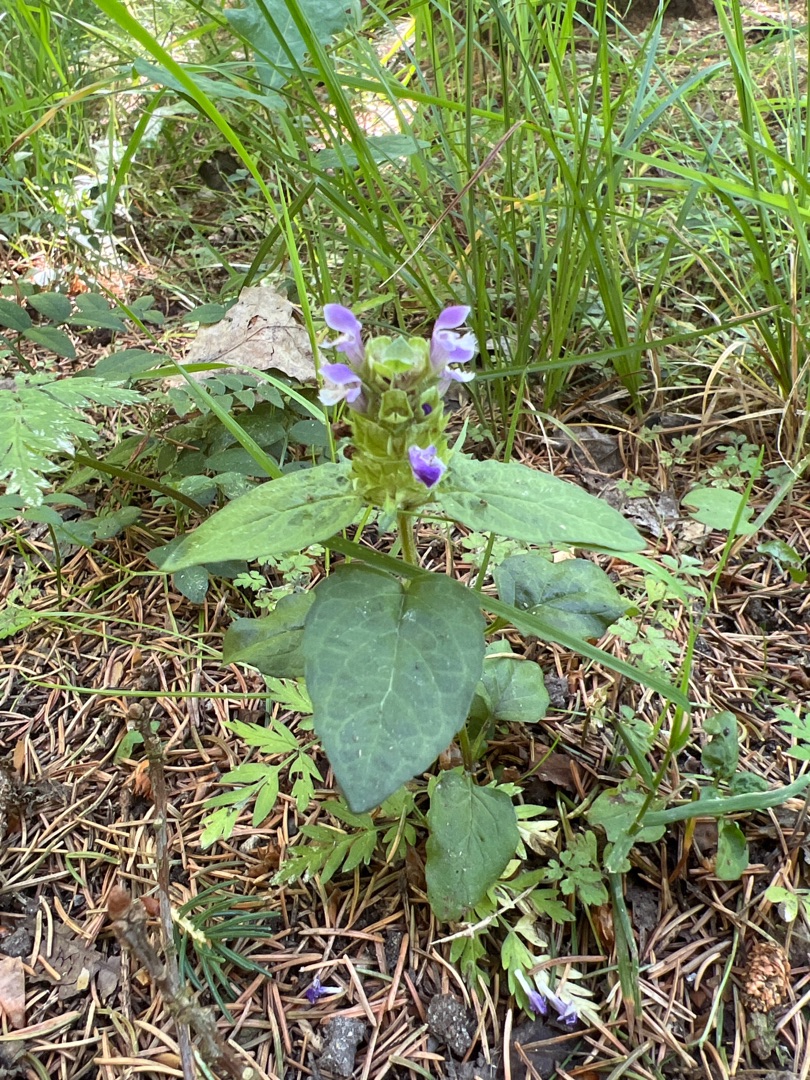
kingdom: Plantae
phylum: Tracheophyta
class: Magnoliopsida
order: Lamiales
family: Lamiaceae
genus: Prunella
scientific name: Prunella vulgaris
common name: Almindelig brunelle
